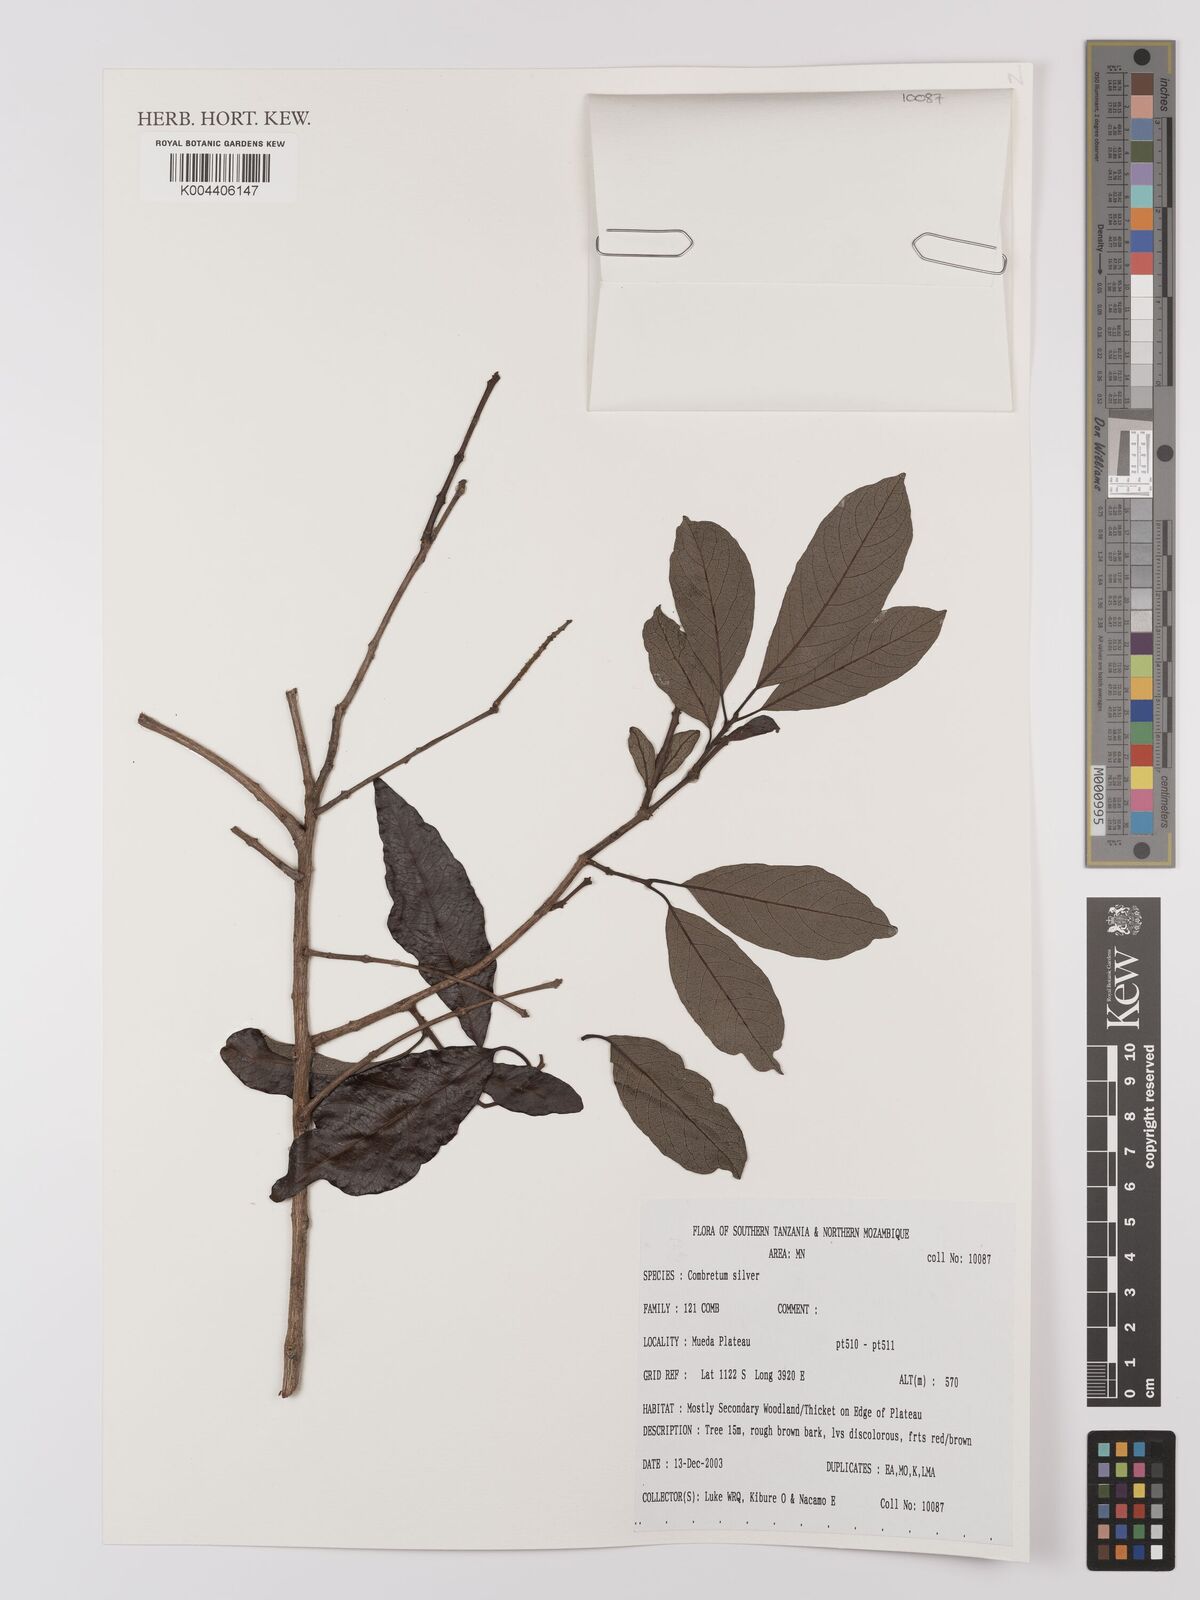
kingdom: Plantae
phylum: Tracheophyta
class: Magnoliopsida
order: Myrtales
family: Combretaceae
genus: Combretum
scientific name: Combretum
